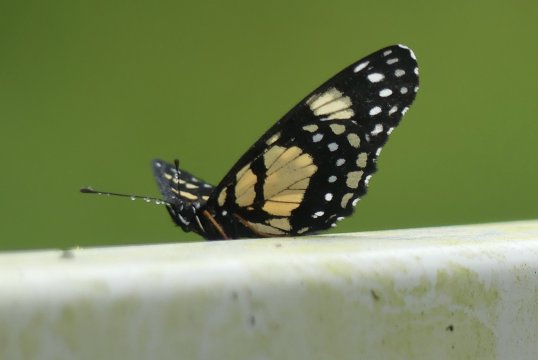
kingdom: Animalia
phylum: Arthropoda
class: Insecta
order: Lepidoptera
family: Nymphalidae
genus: Chlosyne
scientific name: Chlosyne narva
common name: Narva Checkerspot
